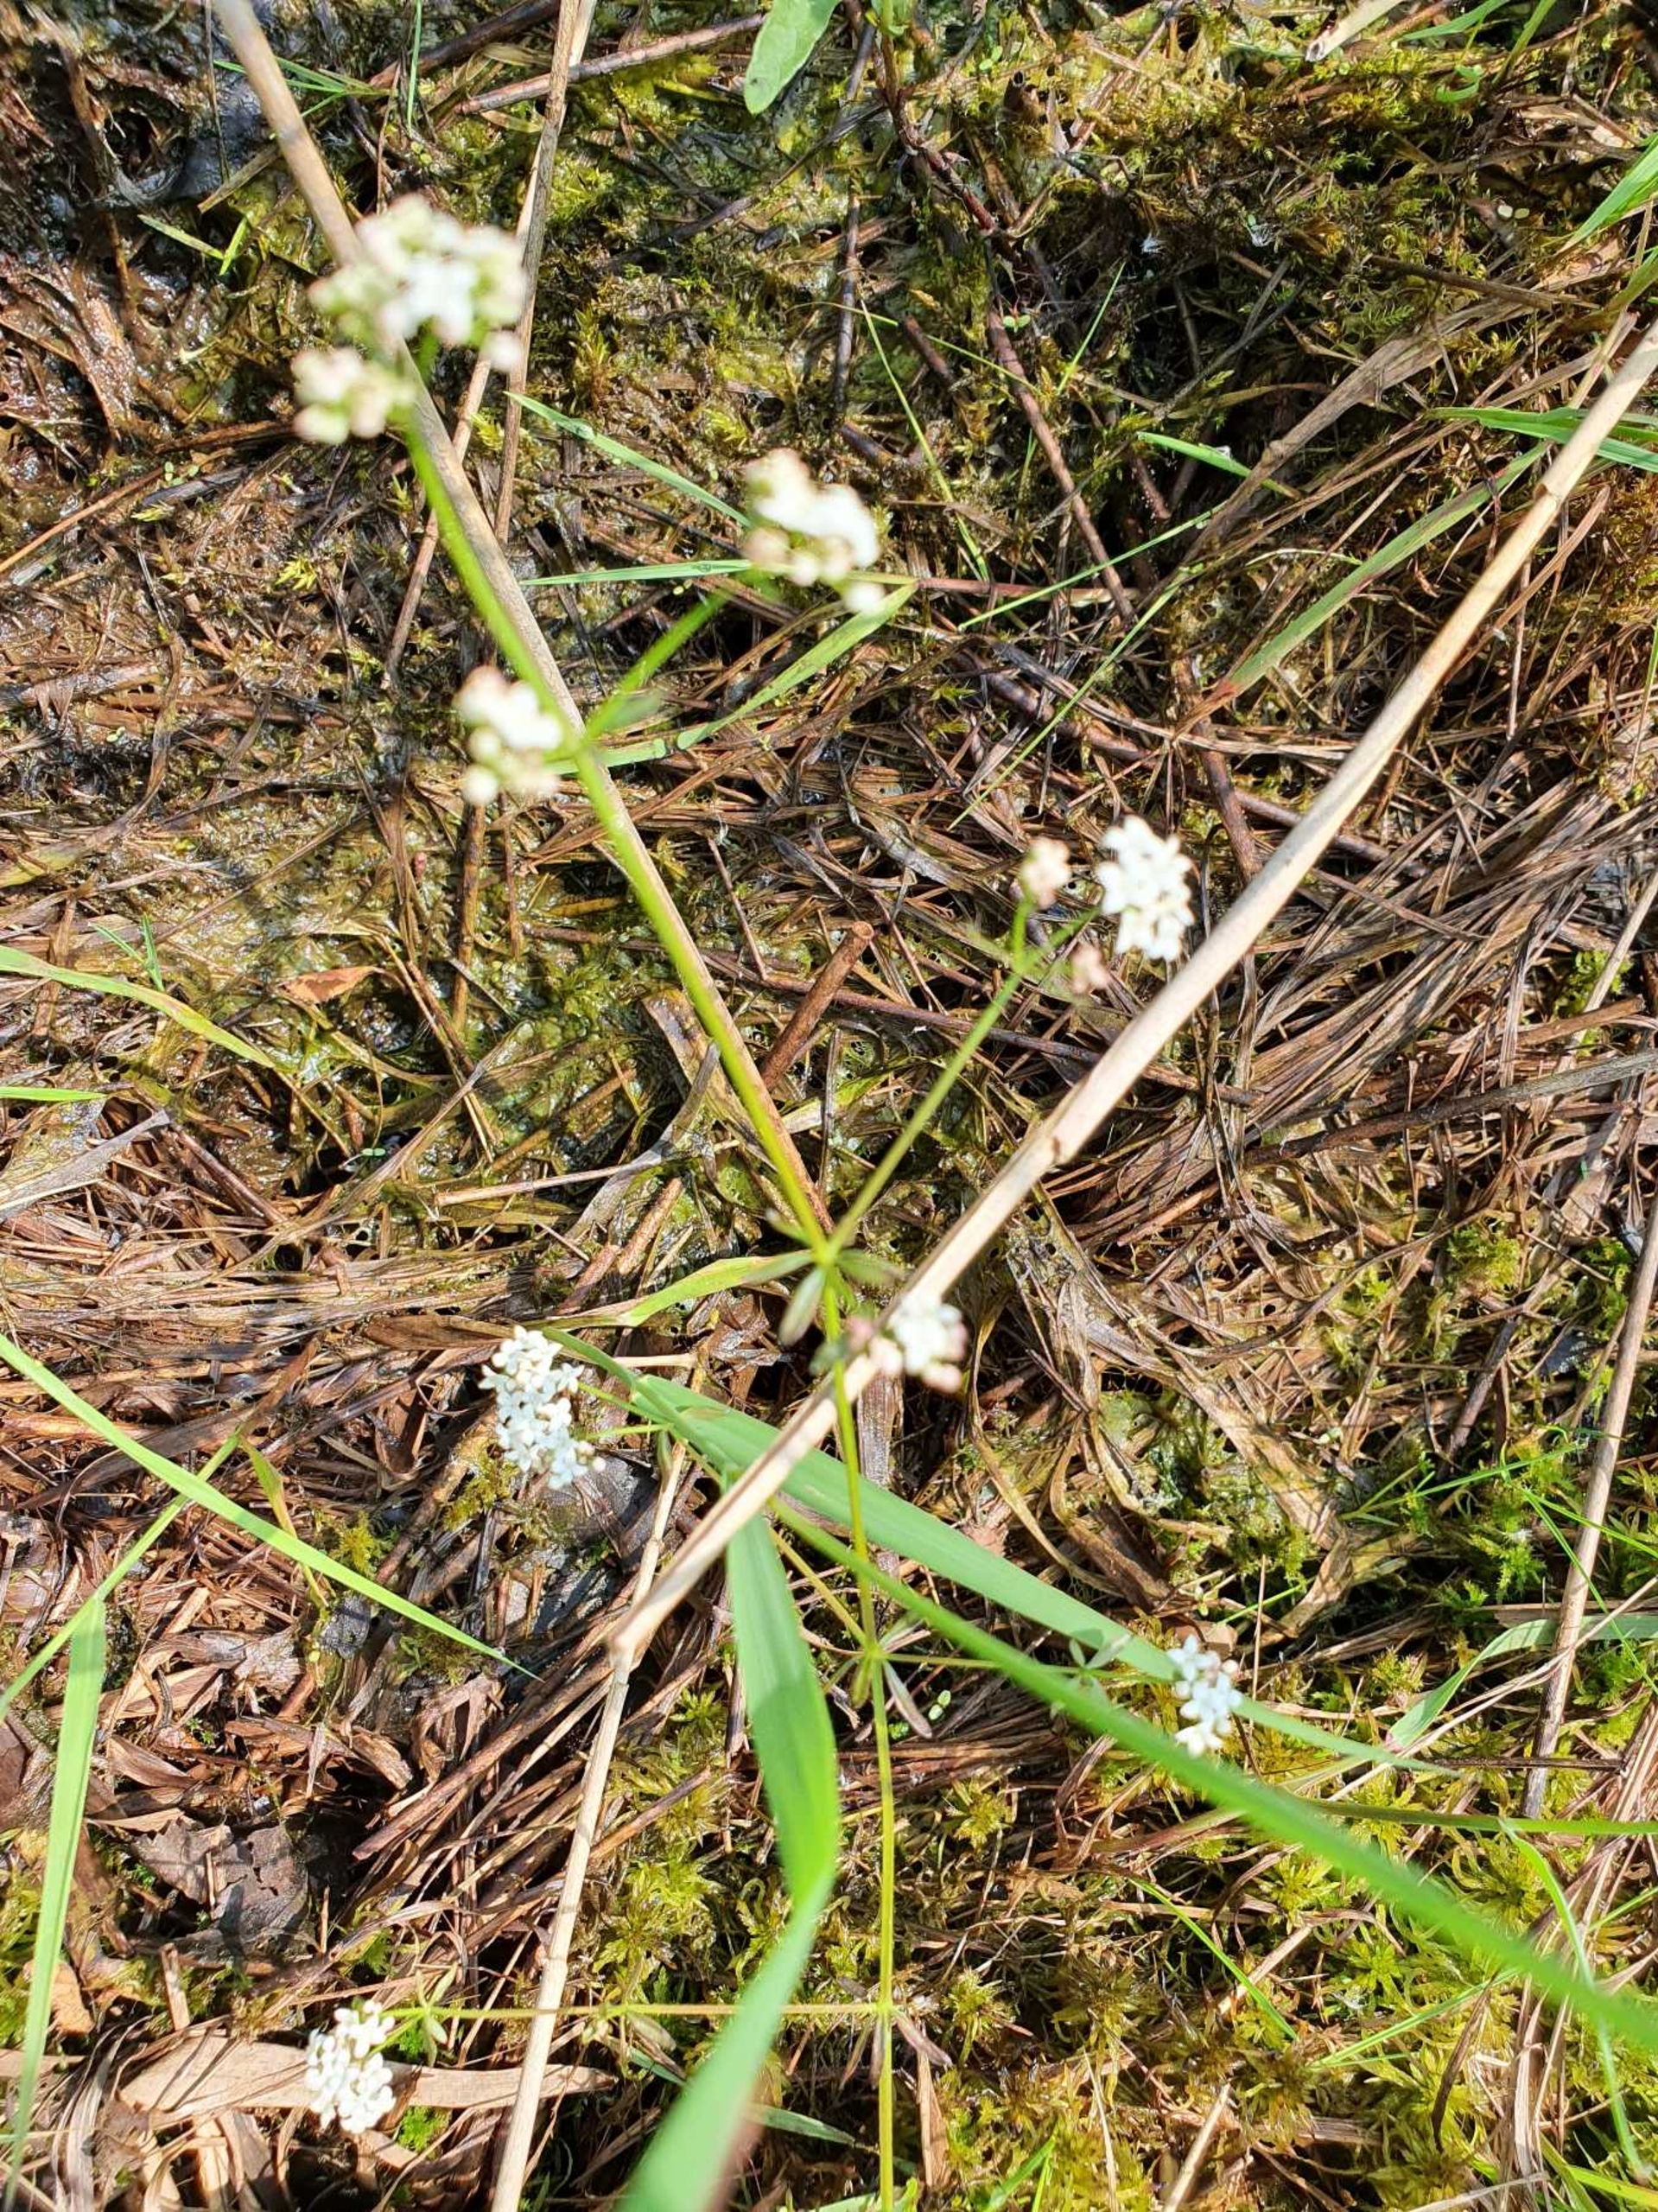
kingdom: Plantae
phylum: Tracheophyta
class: Magnoliopsida
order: Gentianales
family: Rubiaceae
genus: Galium
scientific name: Galium palustre
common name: Kær-snerre
